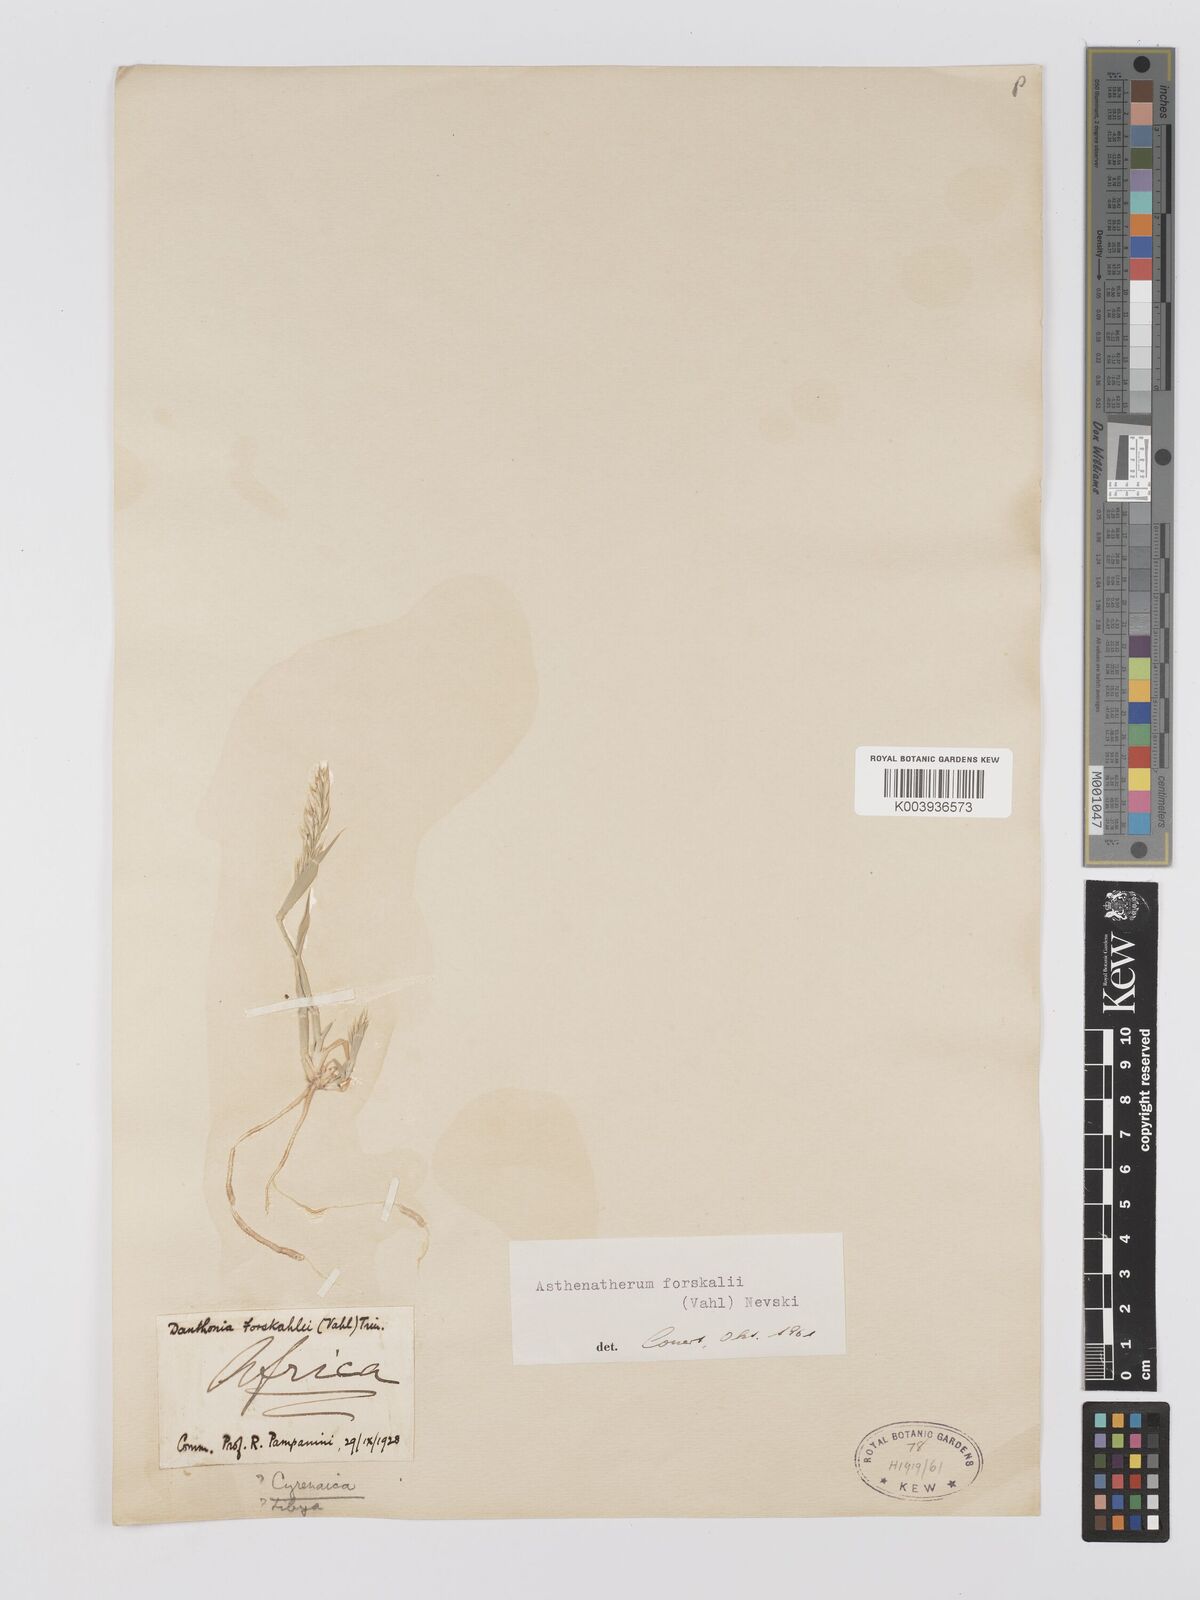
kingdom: Plantae
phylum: Tracheophyta
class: Liliopsida
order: Poales
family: Poaceae
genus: Centropodia
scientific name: Centropodia forskaolii
